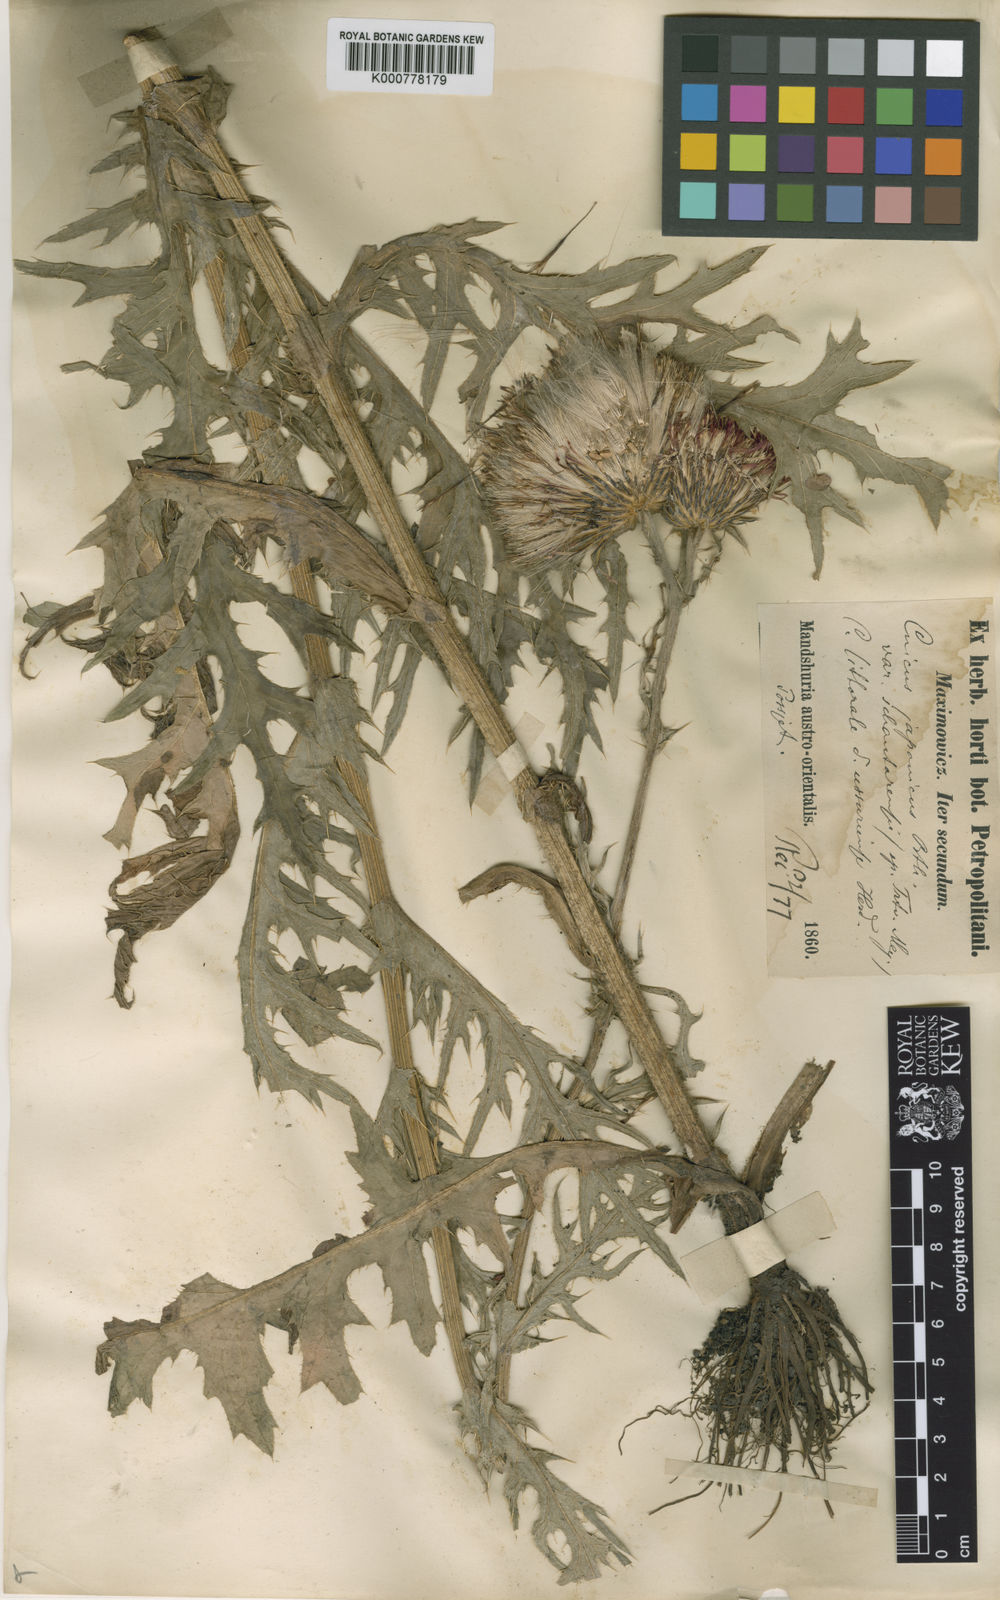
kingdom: Plantae
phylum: Tracheophyta
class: Magnoliopsida
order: Asterales
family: Asteraceae
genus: Cirsium
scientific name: Cirsium maackii
